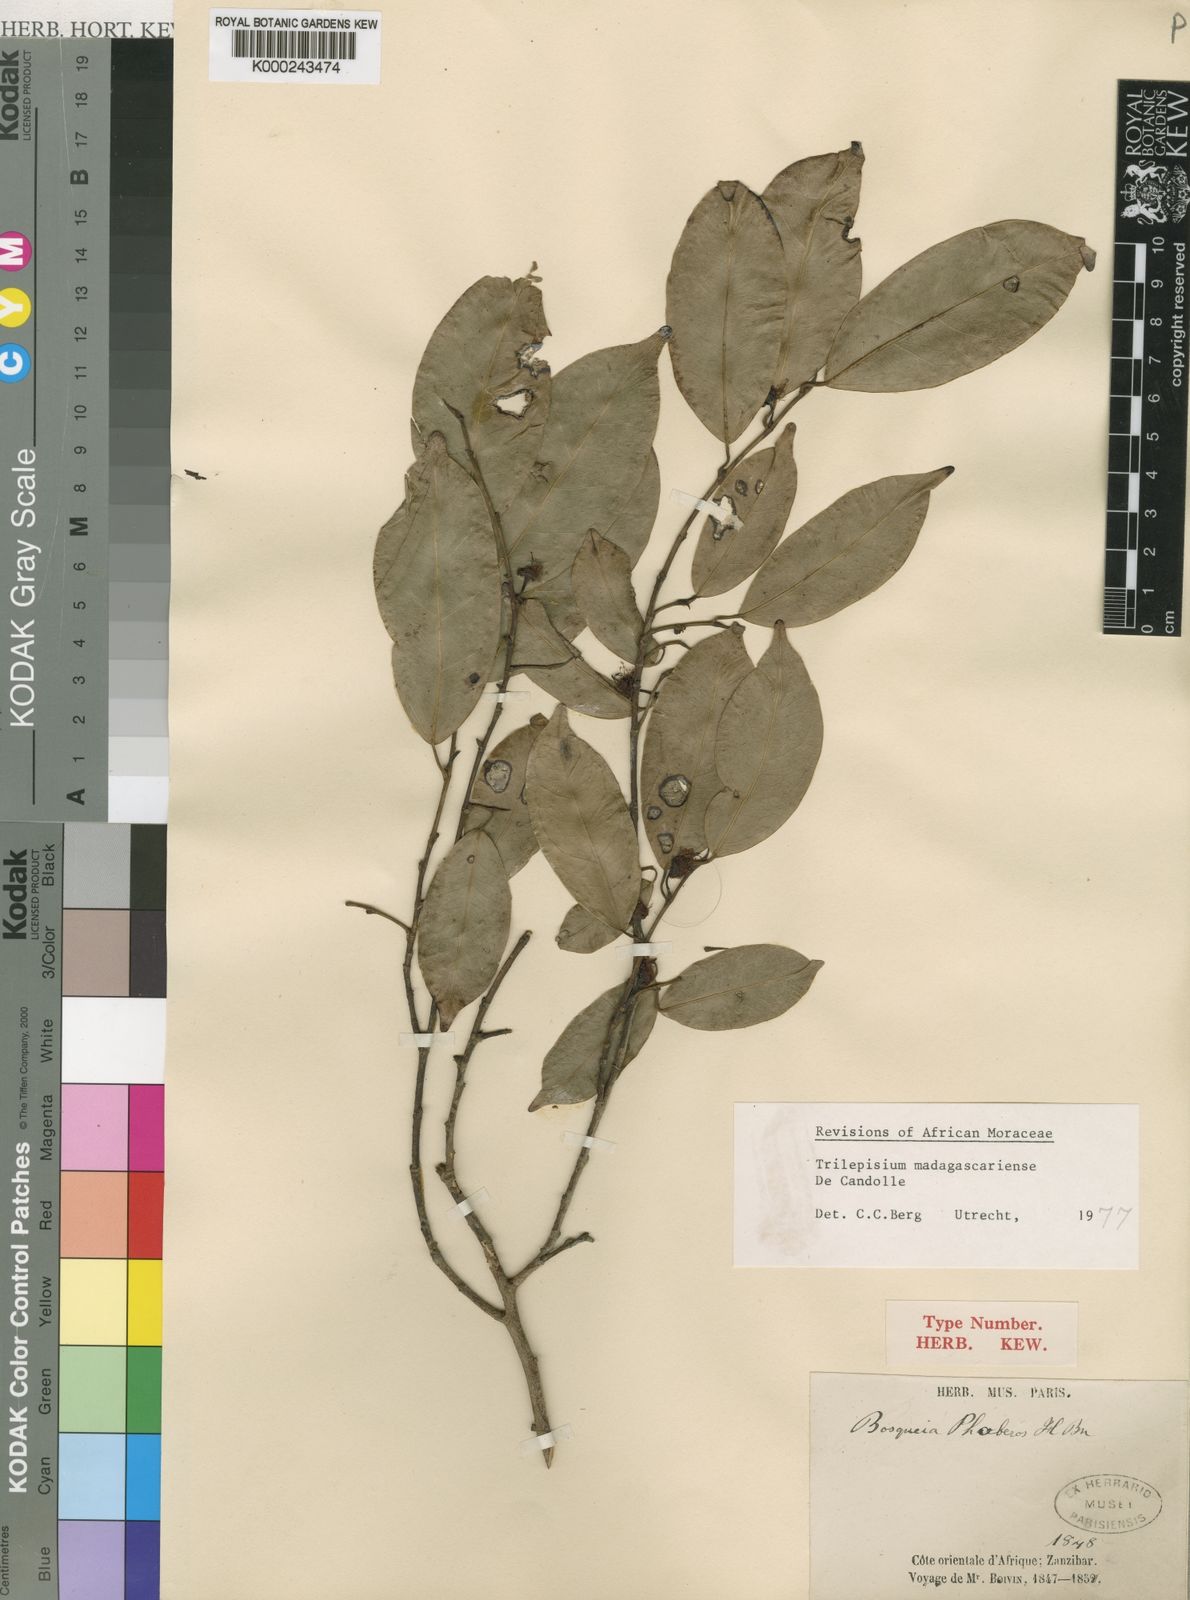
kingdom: Plantae
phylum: Tracheophyta
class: Magnoliopsida
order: Rosales
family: Moraceae
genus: Trilepisium
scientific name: Trilepisium madagascariense
